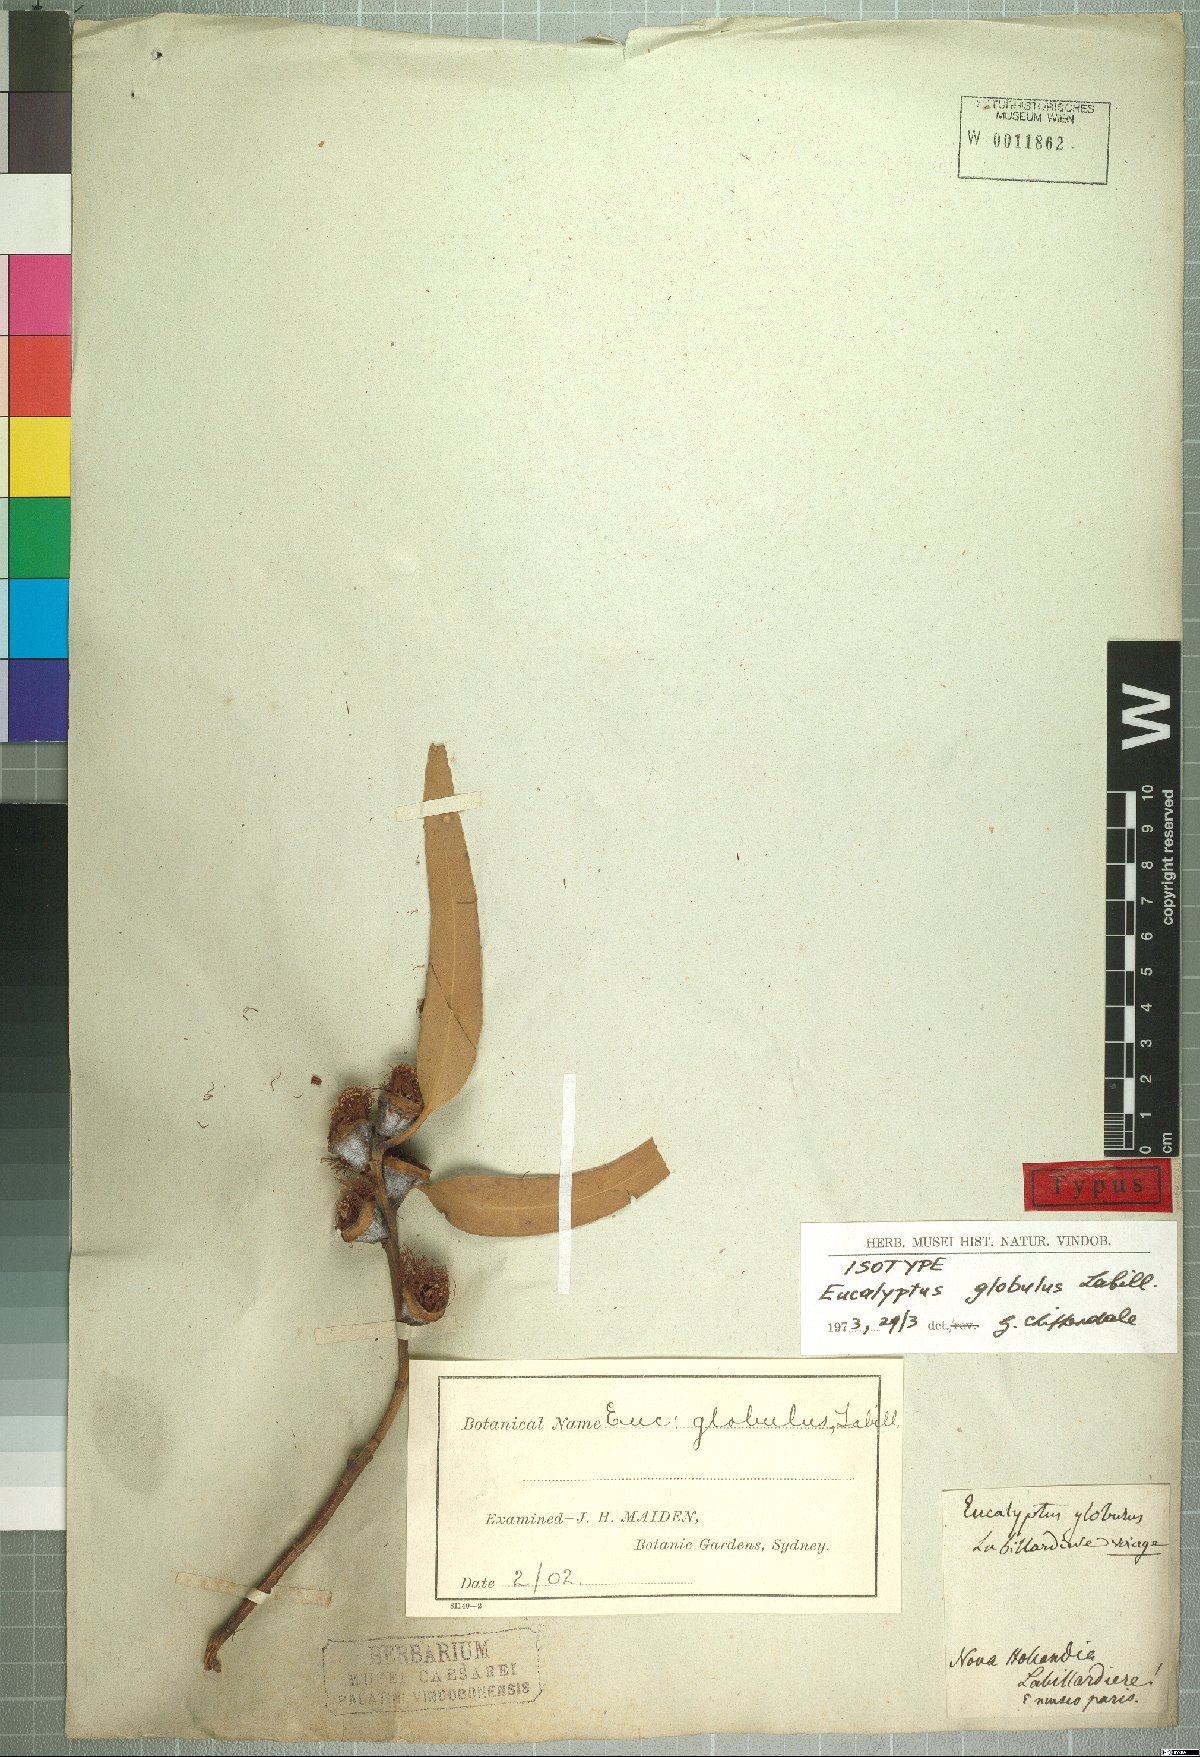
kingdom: Plantae
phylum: Tracheophyta
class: Magnoliopsida
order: Myrtales
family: Myrtaceae
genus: Eucalyptus
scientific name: Eucalyptus globulus
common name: Southern blue-gum
